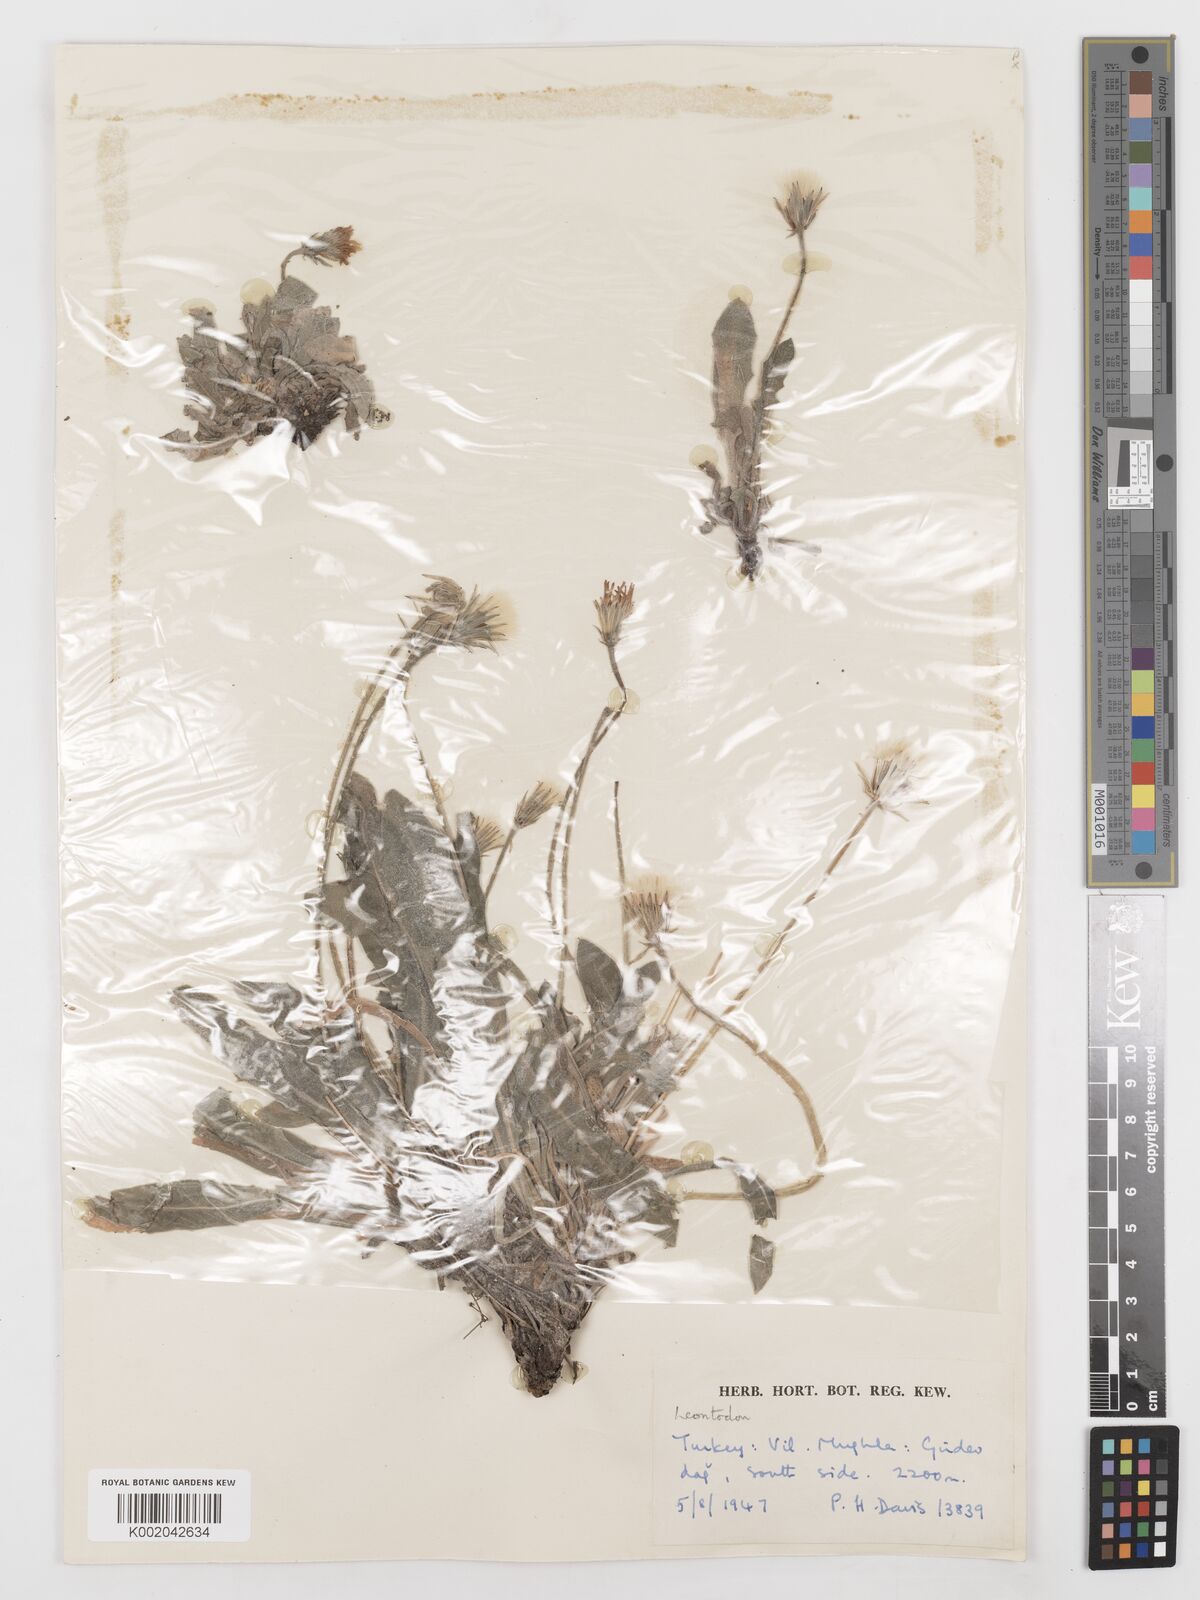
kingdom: Plantae
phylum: Tracheophyta
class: Magnoliopsida
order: Asterales
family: Asteraceae
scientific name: Asteraceae
